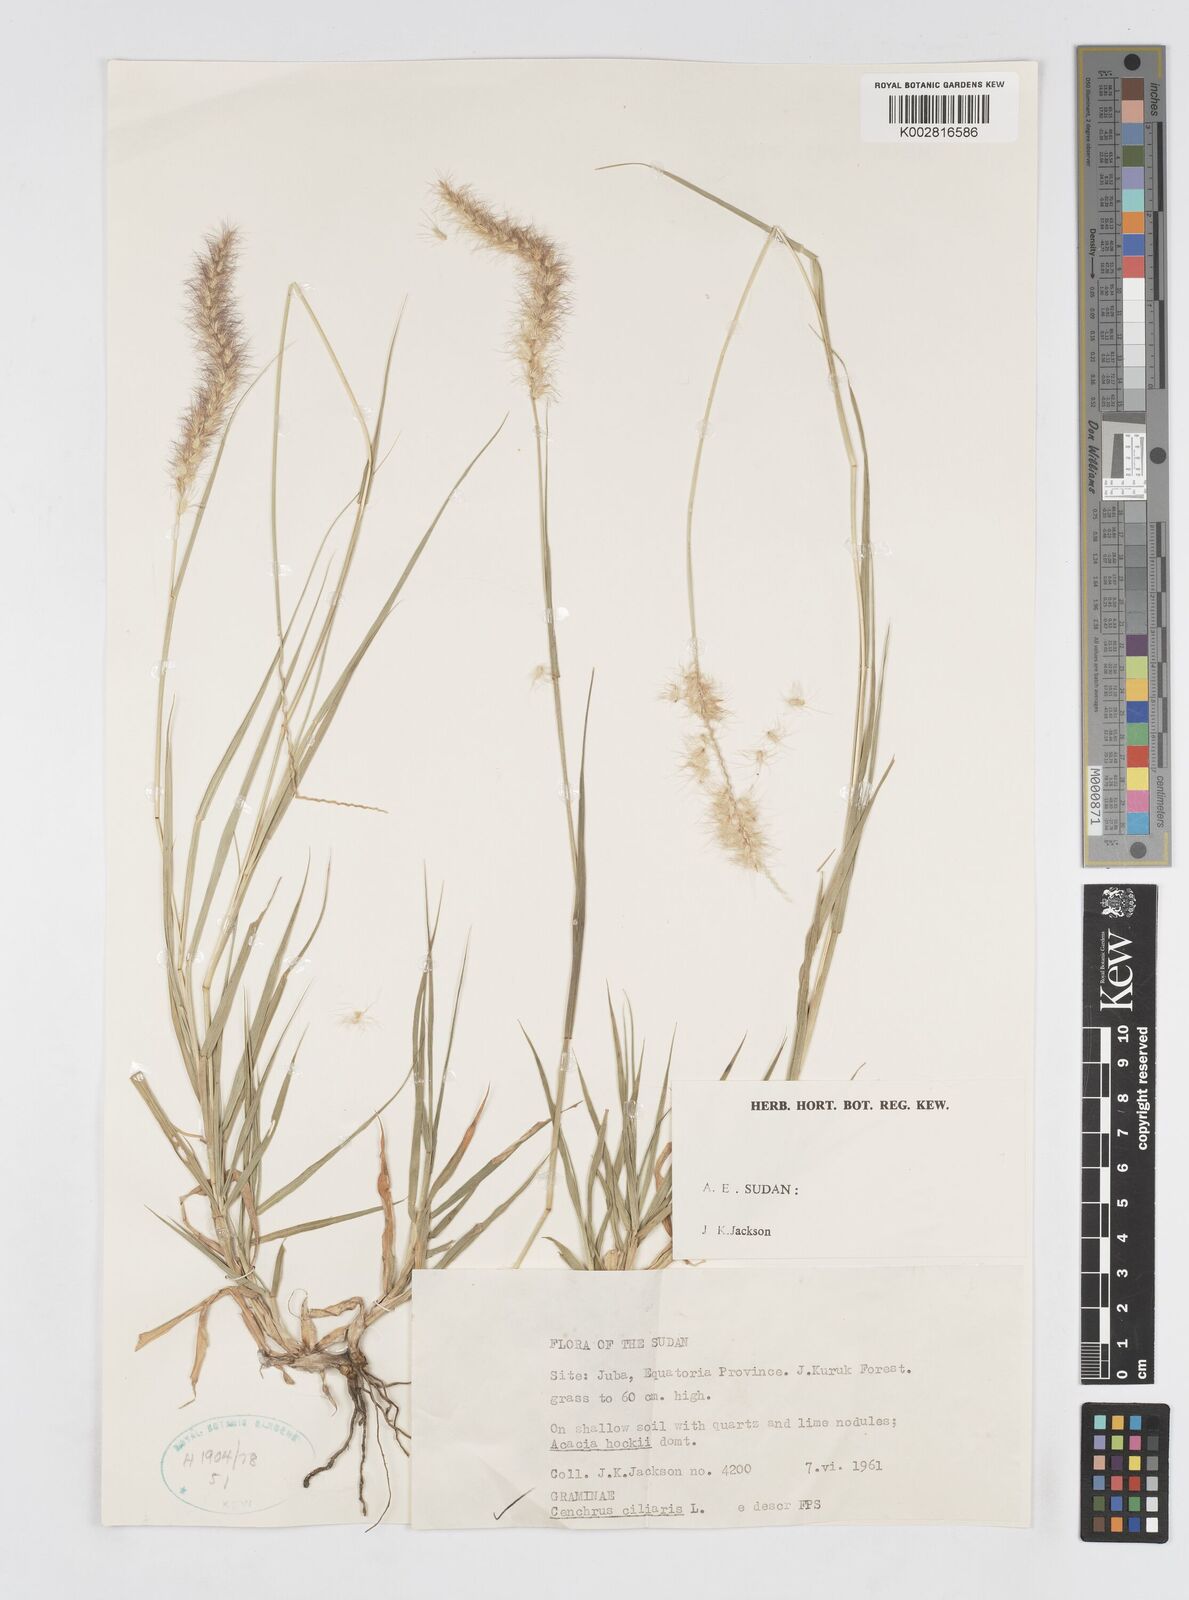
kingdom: Plantae
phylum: Tracheophyta
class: Liliopsida
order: Poales
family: Poaceae
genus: Cenchrus
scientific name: Cenchrus ciliaris
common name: Buffelgrass
